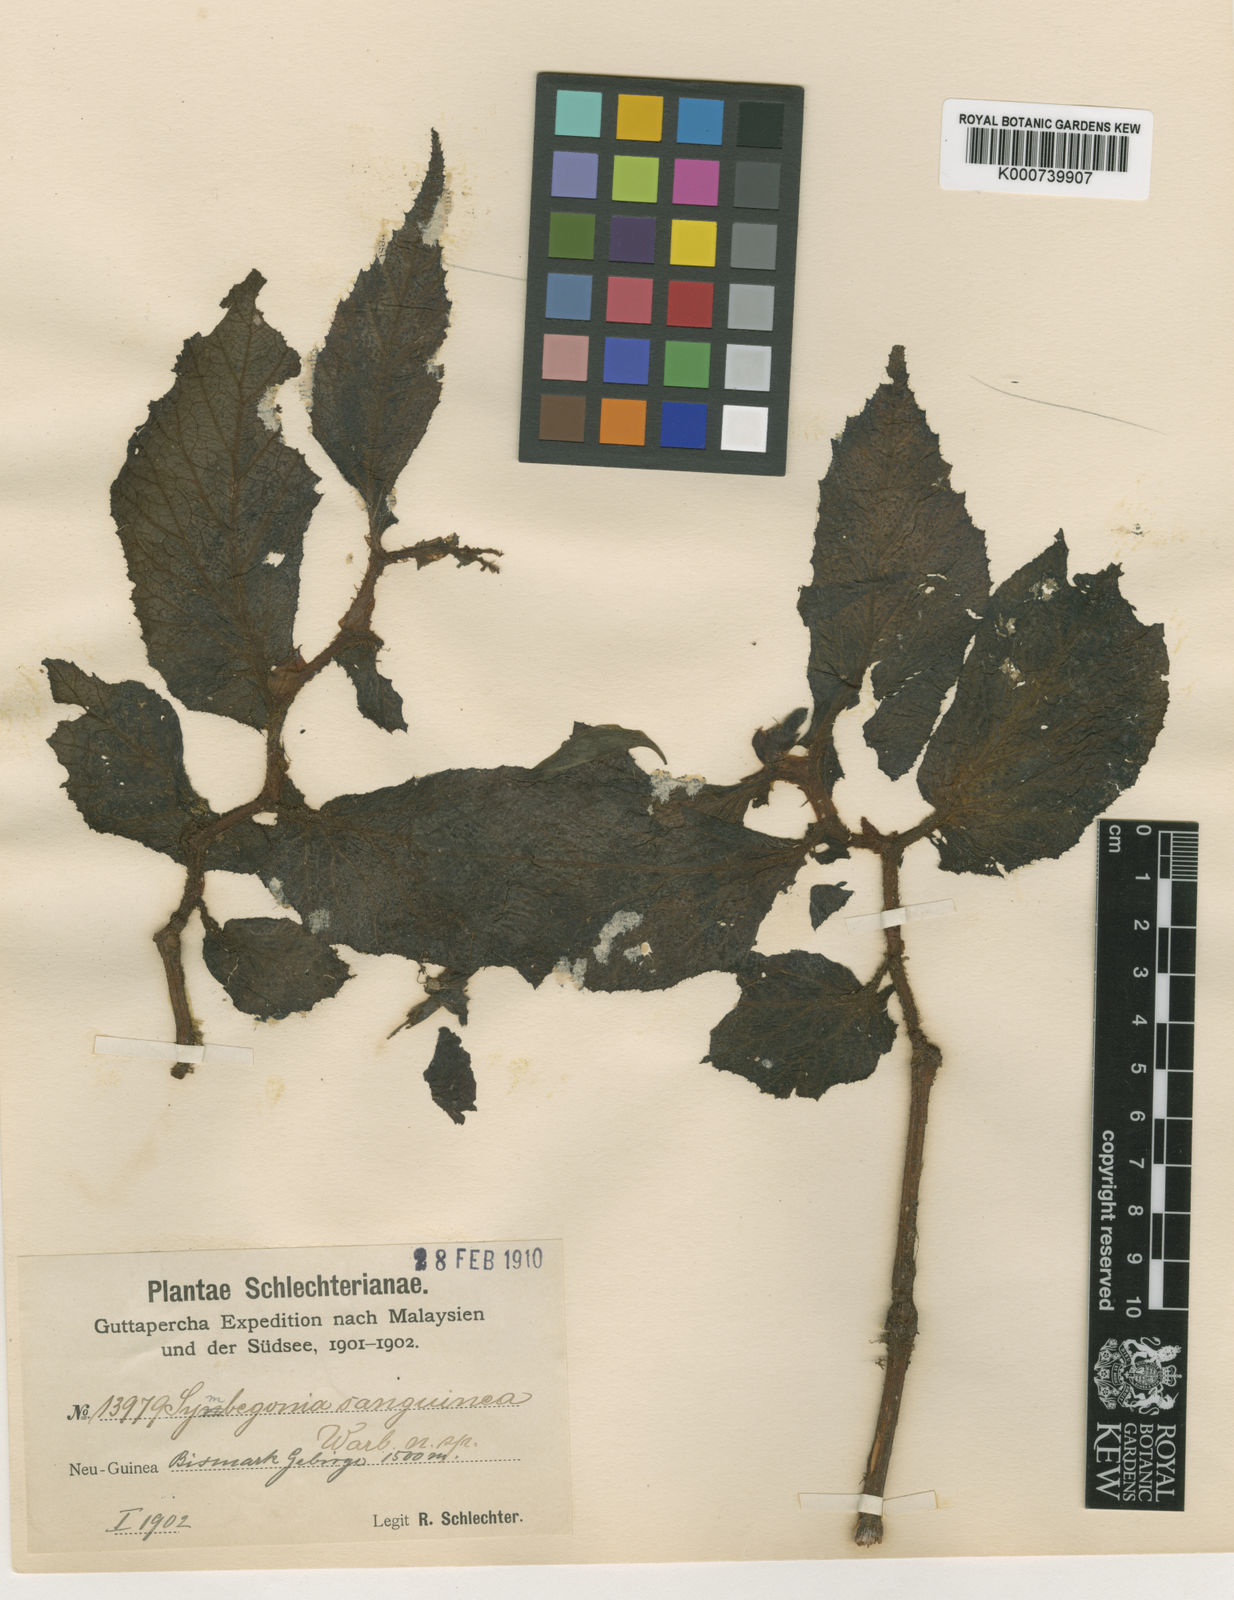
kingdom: Plantae
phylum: Tracheophyta
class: Magnoliopsida
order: Cucurbitales
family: Begoniaceae
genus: Begonia
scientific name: Begonia symsanguinea
